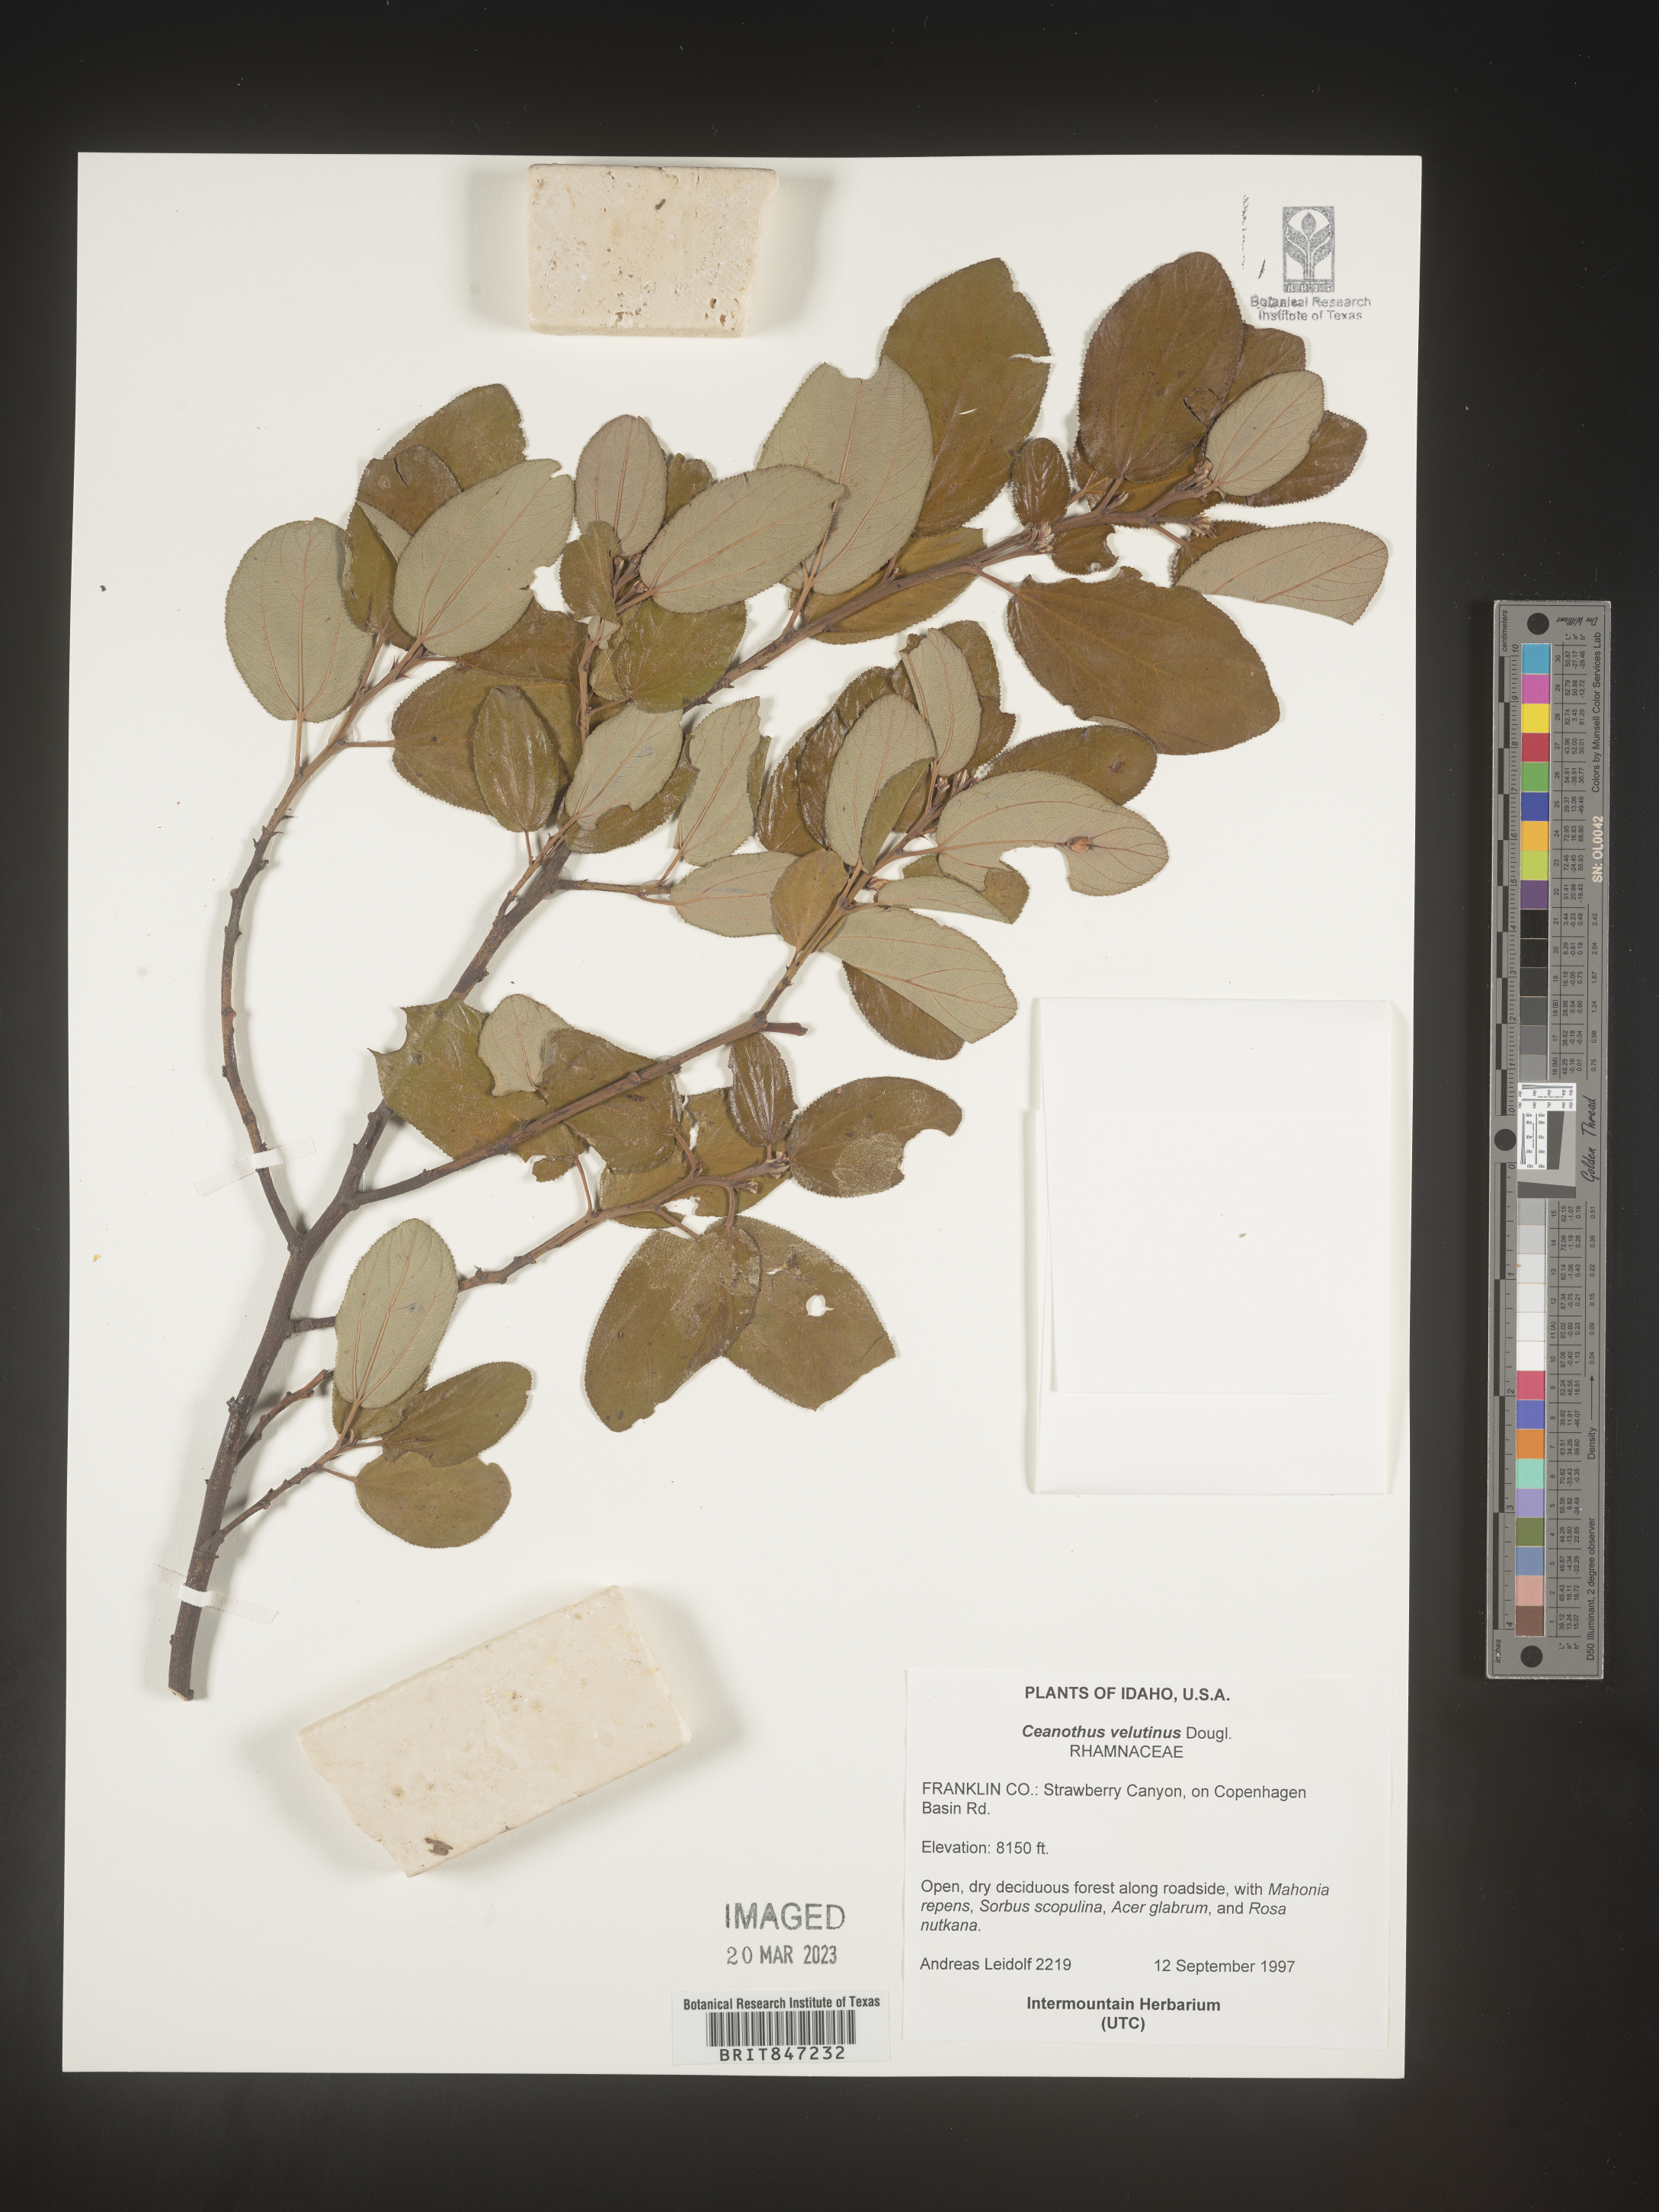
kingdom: Plantae
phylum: Tracheophyta
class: Magnoliopsida
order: Rosales
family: Rhamnaceae
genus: Ceanothus
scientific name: Ceanothus velutinus
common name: Snowbrush
